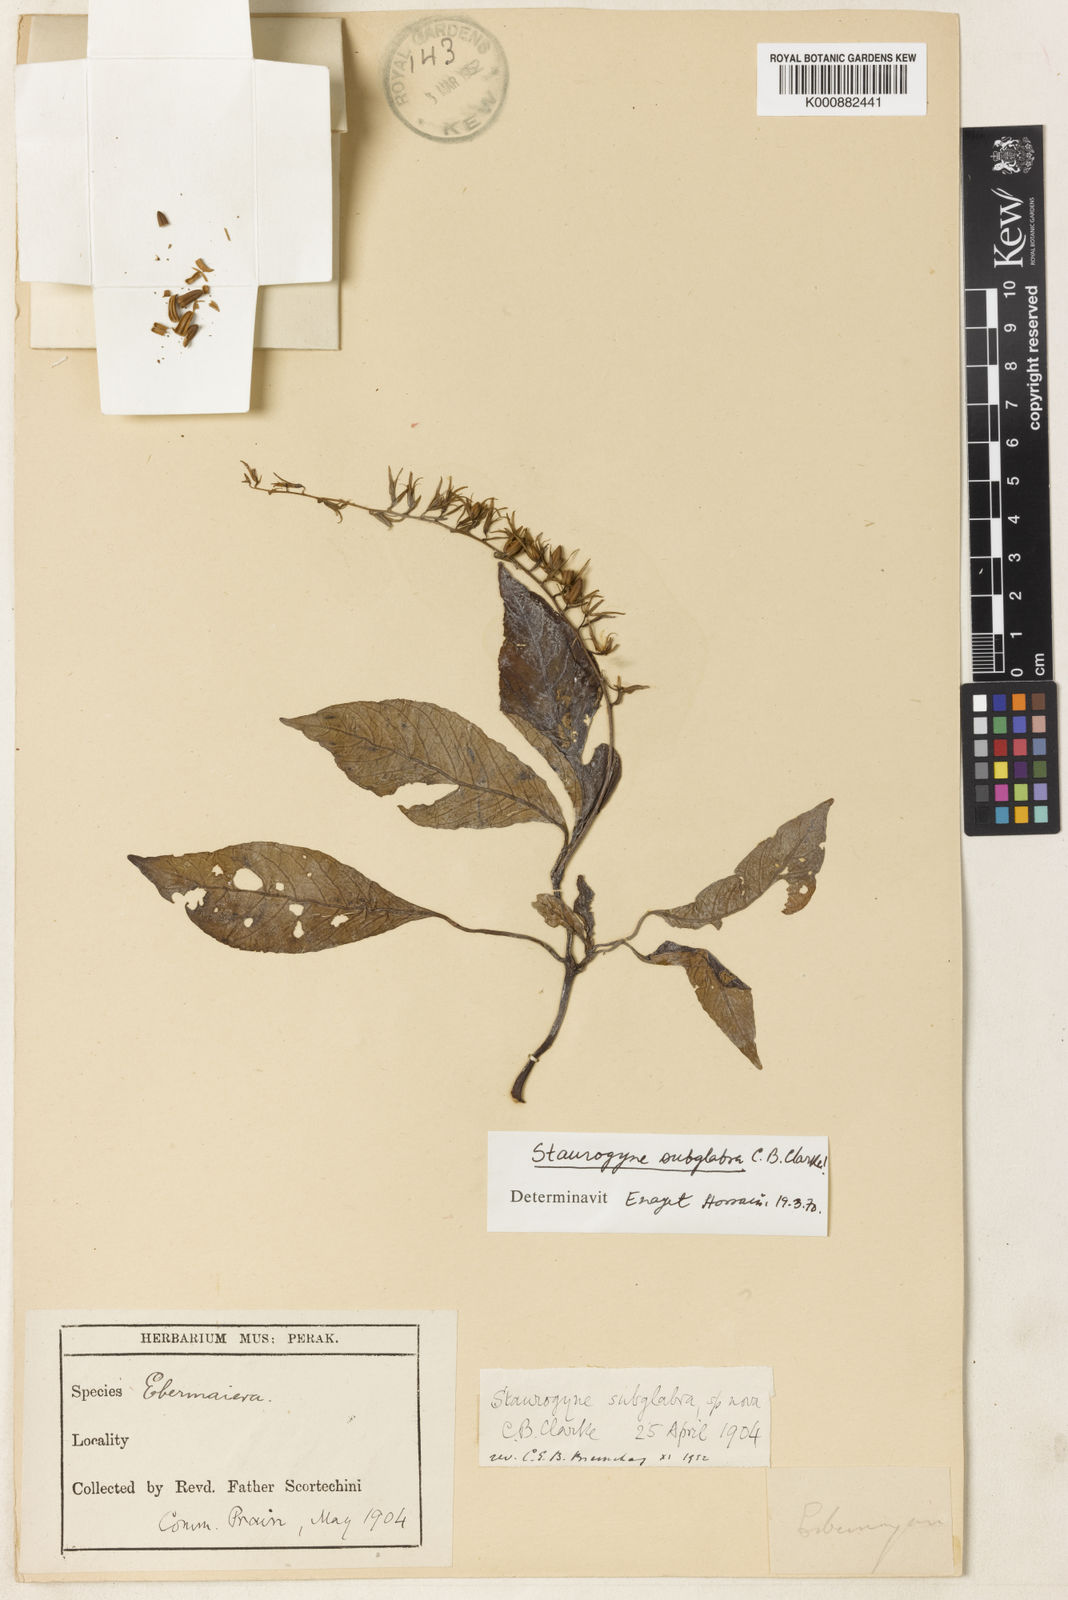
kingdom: Plantae
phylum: Tracheophyta
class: Magnoliopsida
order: Lamiales
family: Acanthaceae
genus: Staurogyne
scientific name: Staurogyne subglabra
